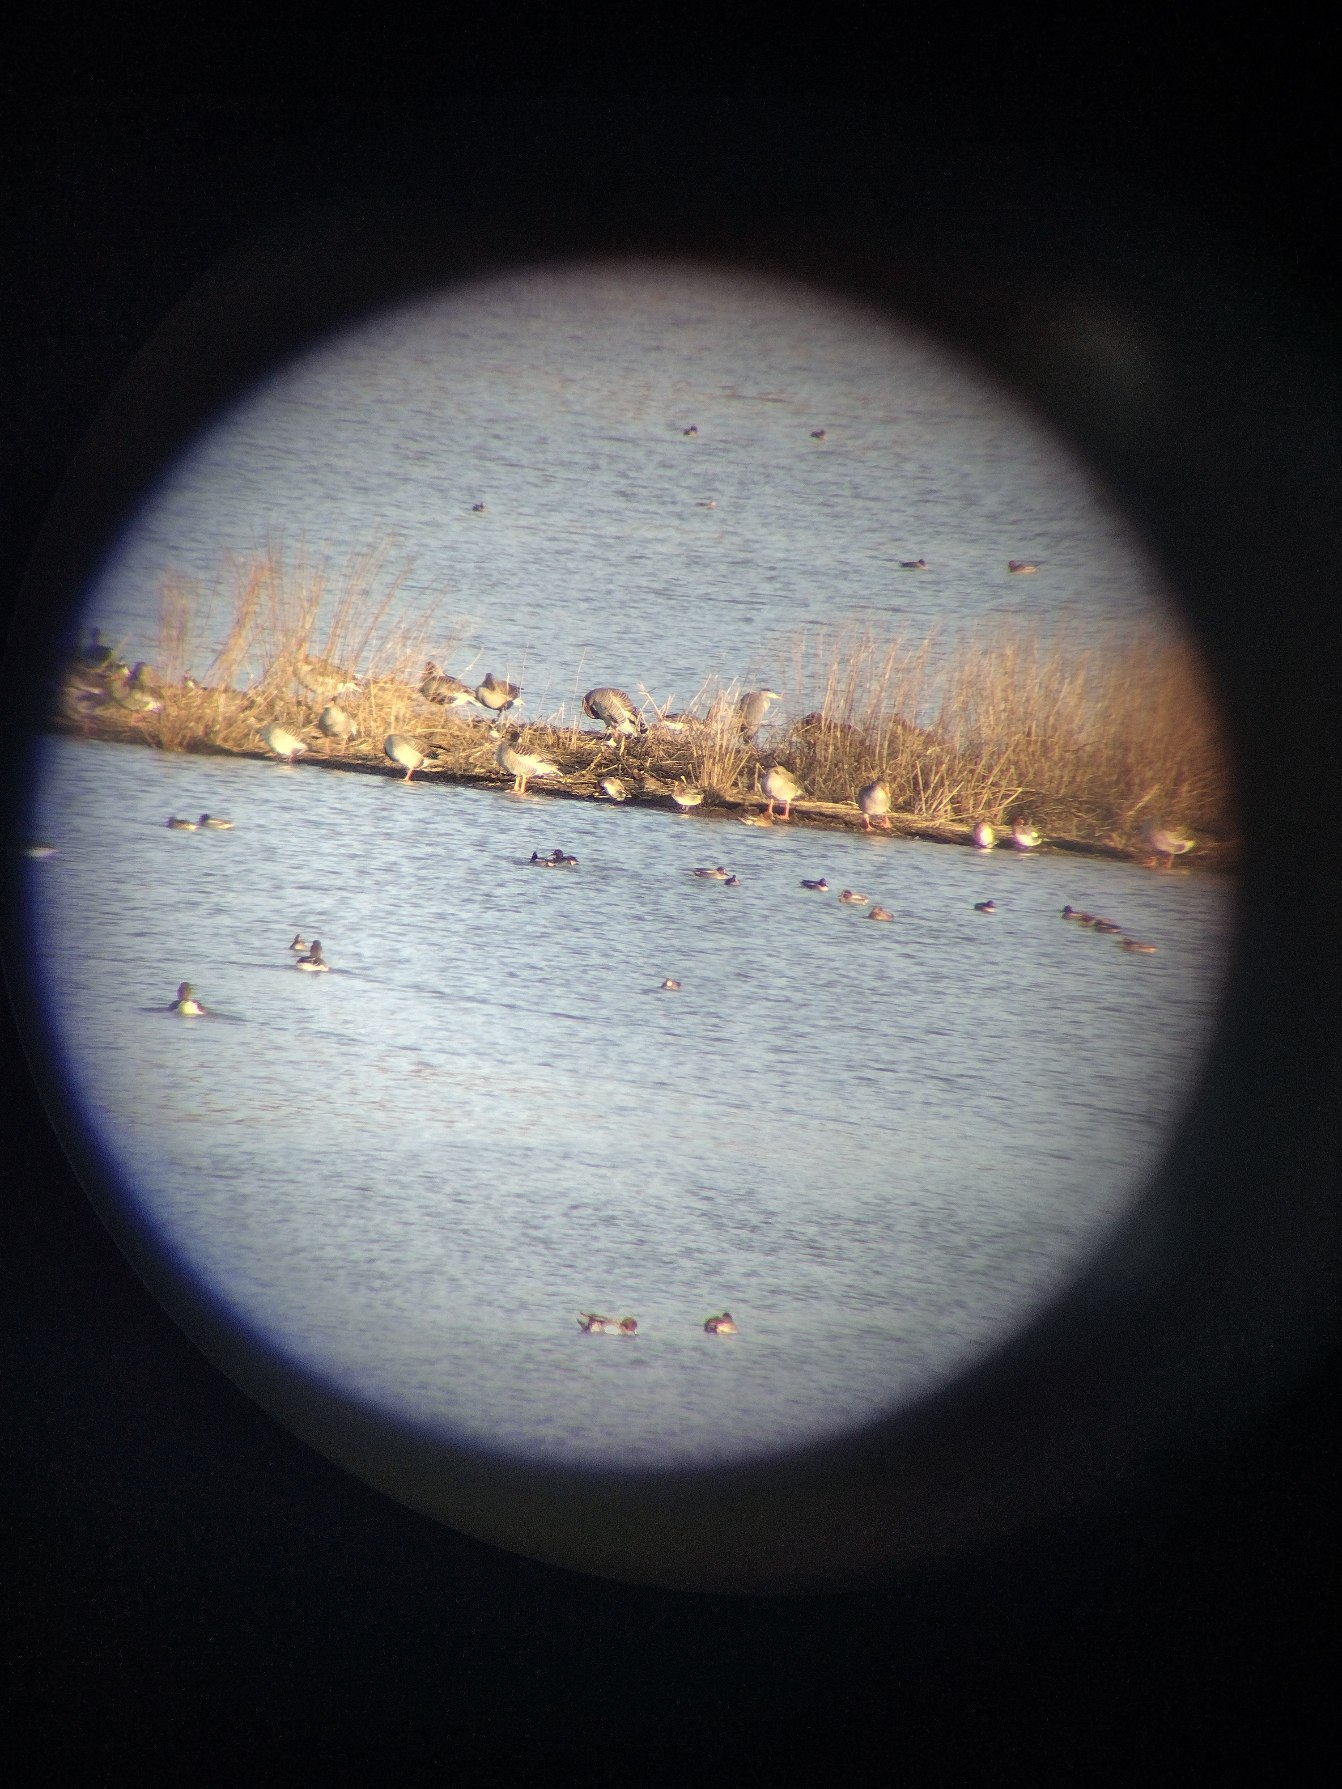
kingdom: Animalia
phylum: Chordata
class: Aves
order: Anseriformes
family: Anatidae
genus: Anas
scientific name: Anas crecca
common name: Krikand
